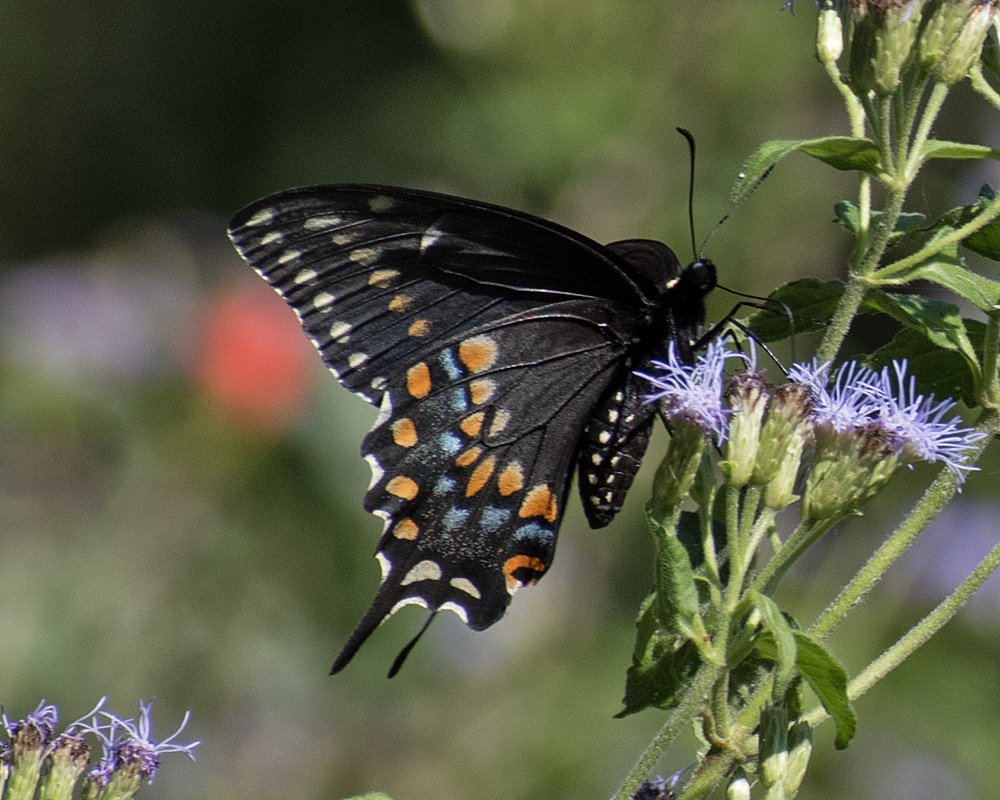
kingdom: Animalia
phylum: Arthropoda
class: Insecta
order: Lepidoptera
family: Papilionidae
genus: Papilio
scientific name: Papilio polyxenes
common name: Black Swallowtail
